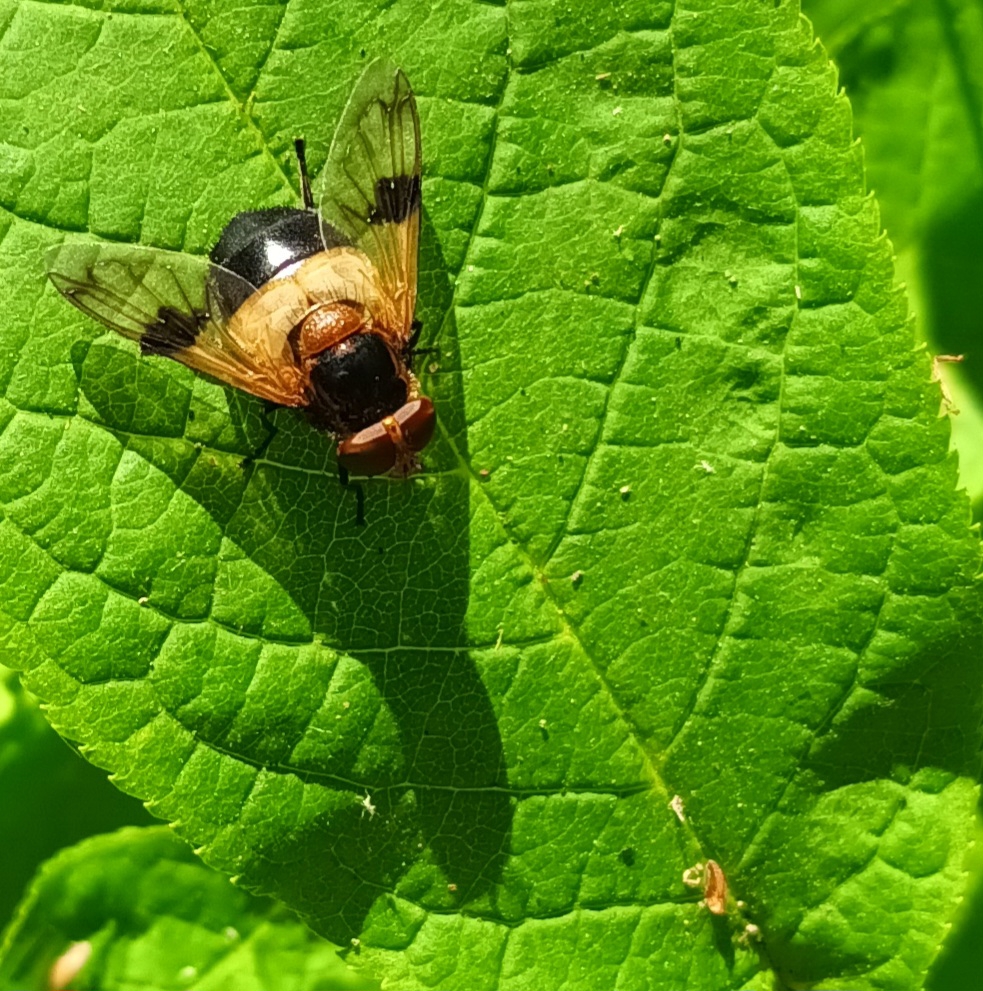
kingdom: Animalia
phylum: Arthropoda
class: Insecta
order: Diptera
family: Syrphidae
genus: Volucella
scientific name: Volucella pellucens
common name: Hvidbåndet humlesvirreflue
